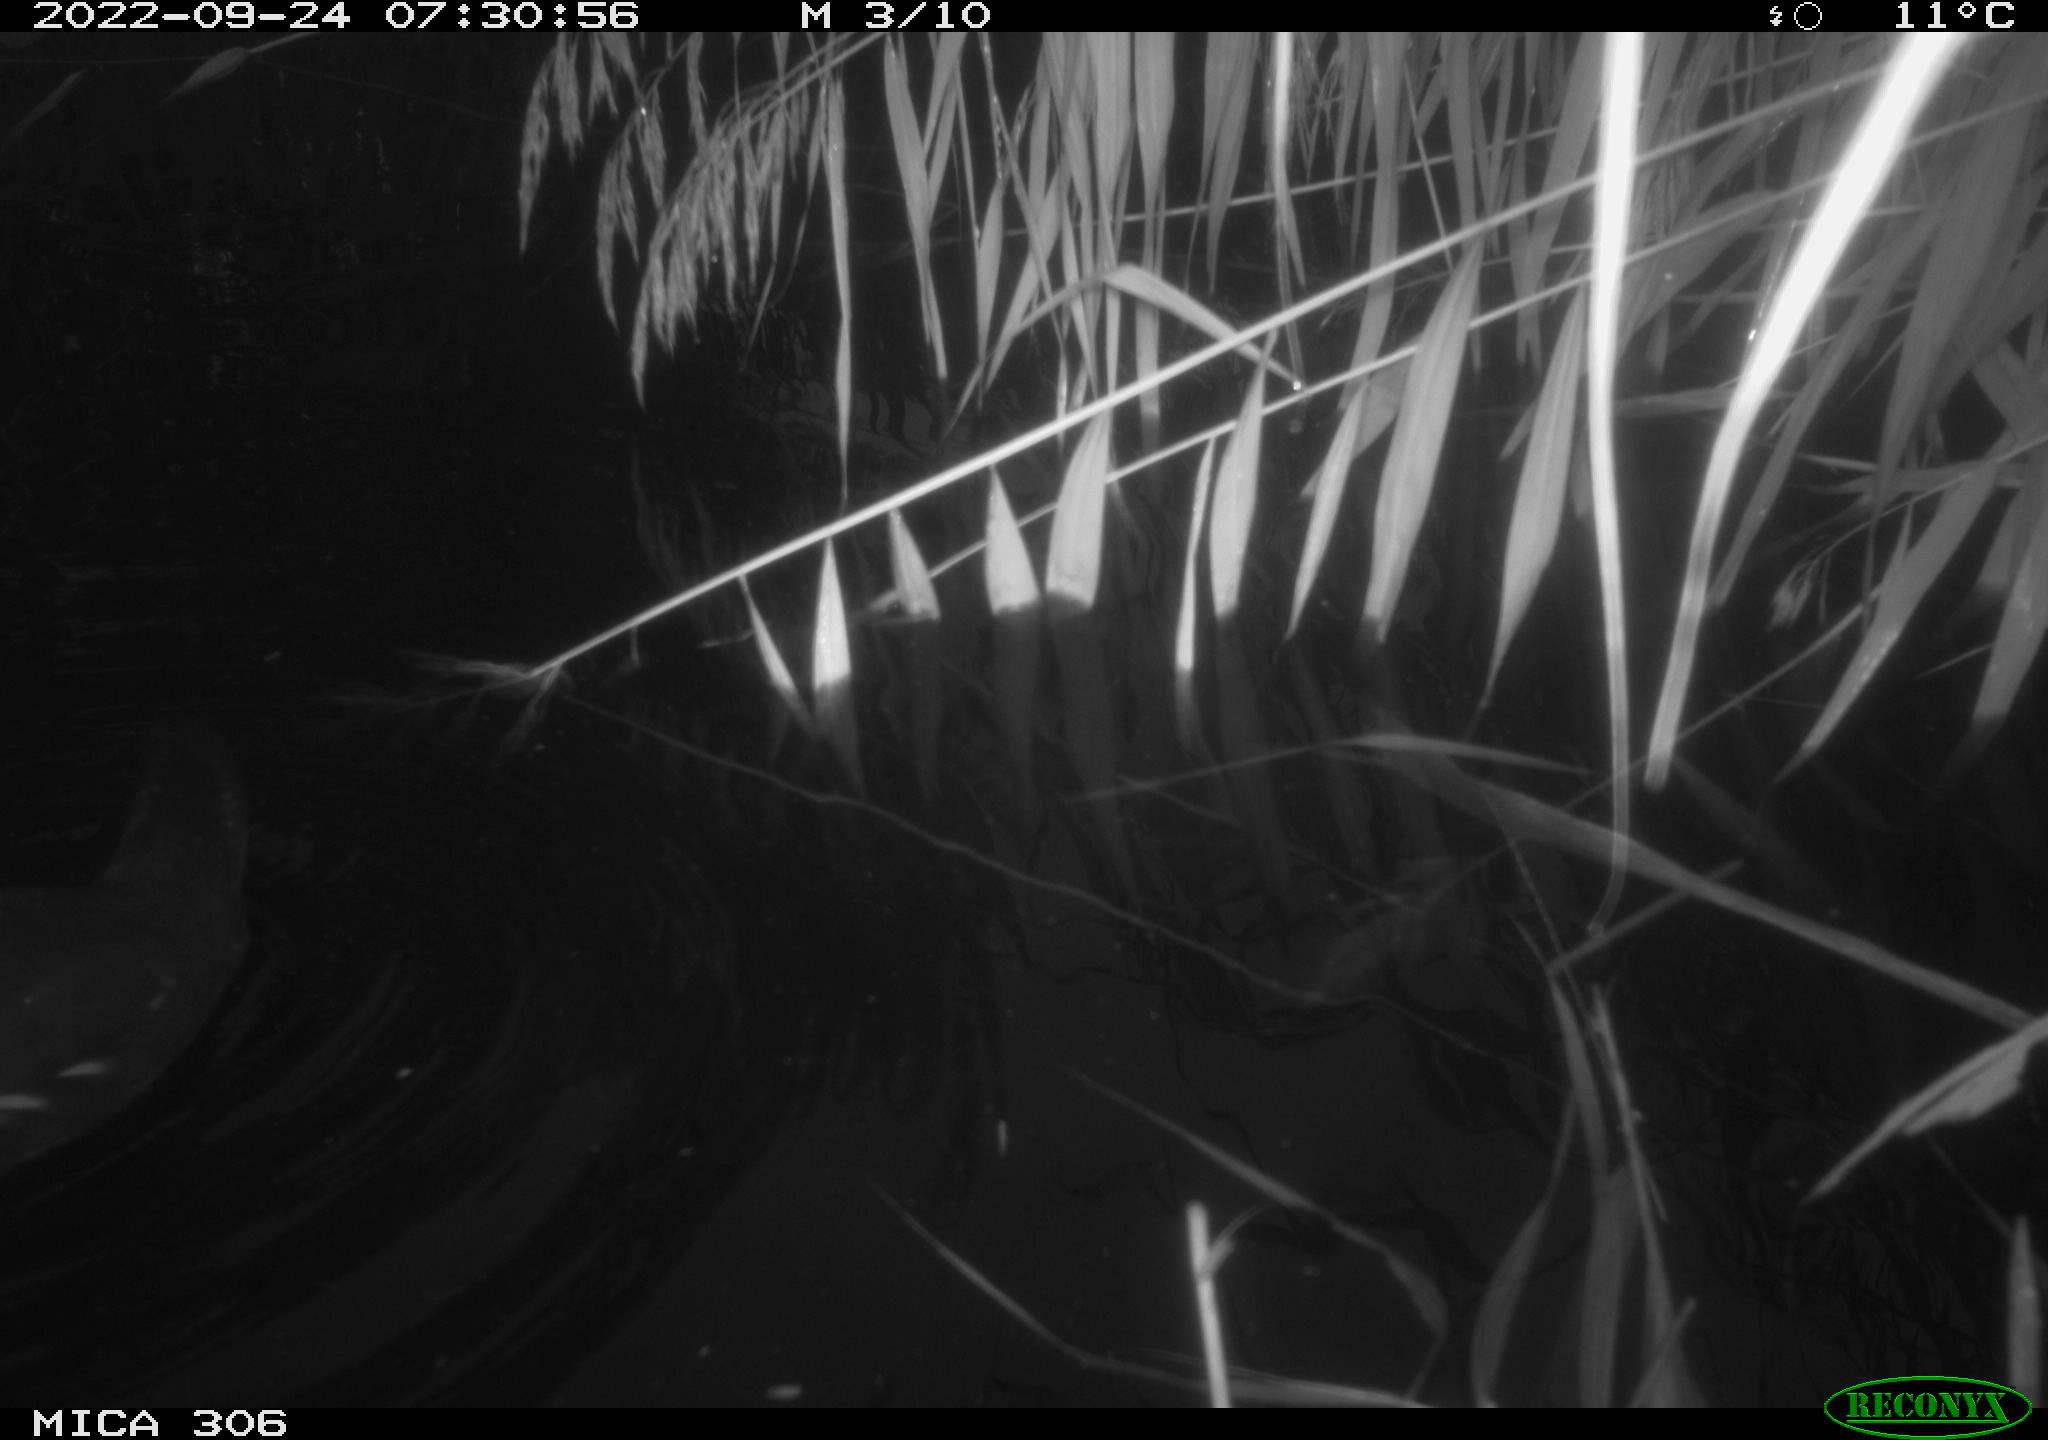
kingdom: Animalia
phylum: Chordata
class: Aves
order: Gruiformes
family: Rallidae
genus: Gallinula
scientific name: Gallinula chloropus
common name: Common moorhen
